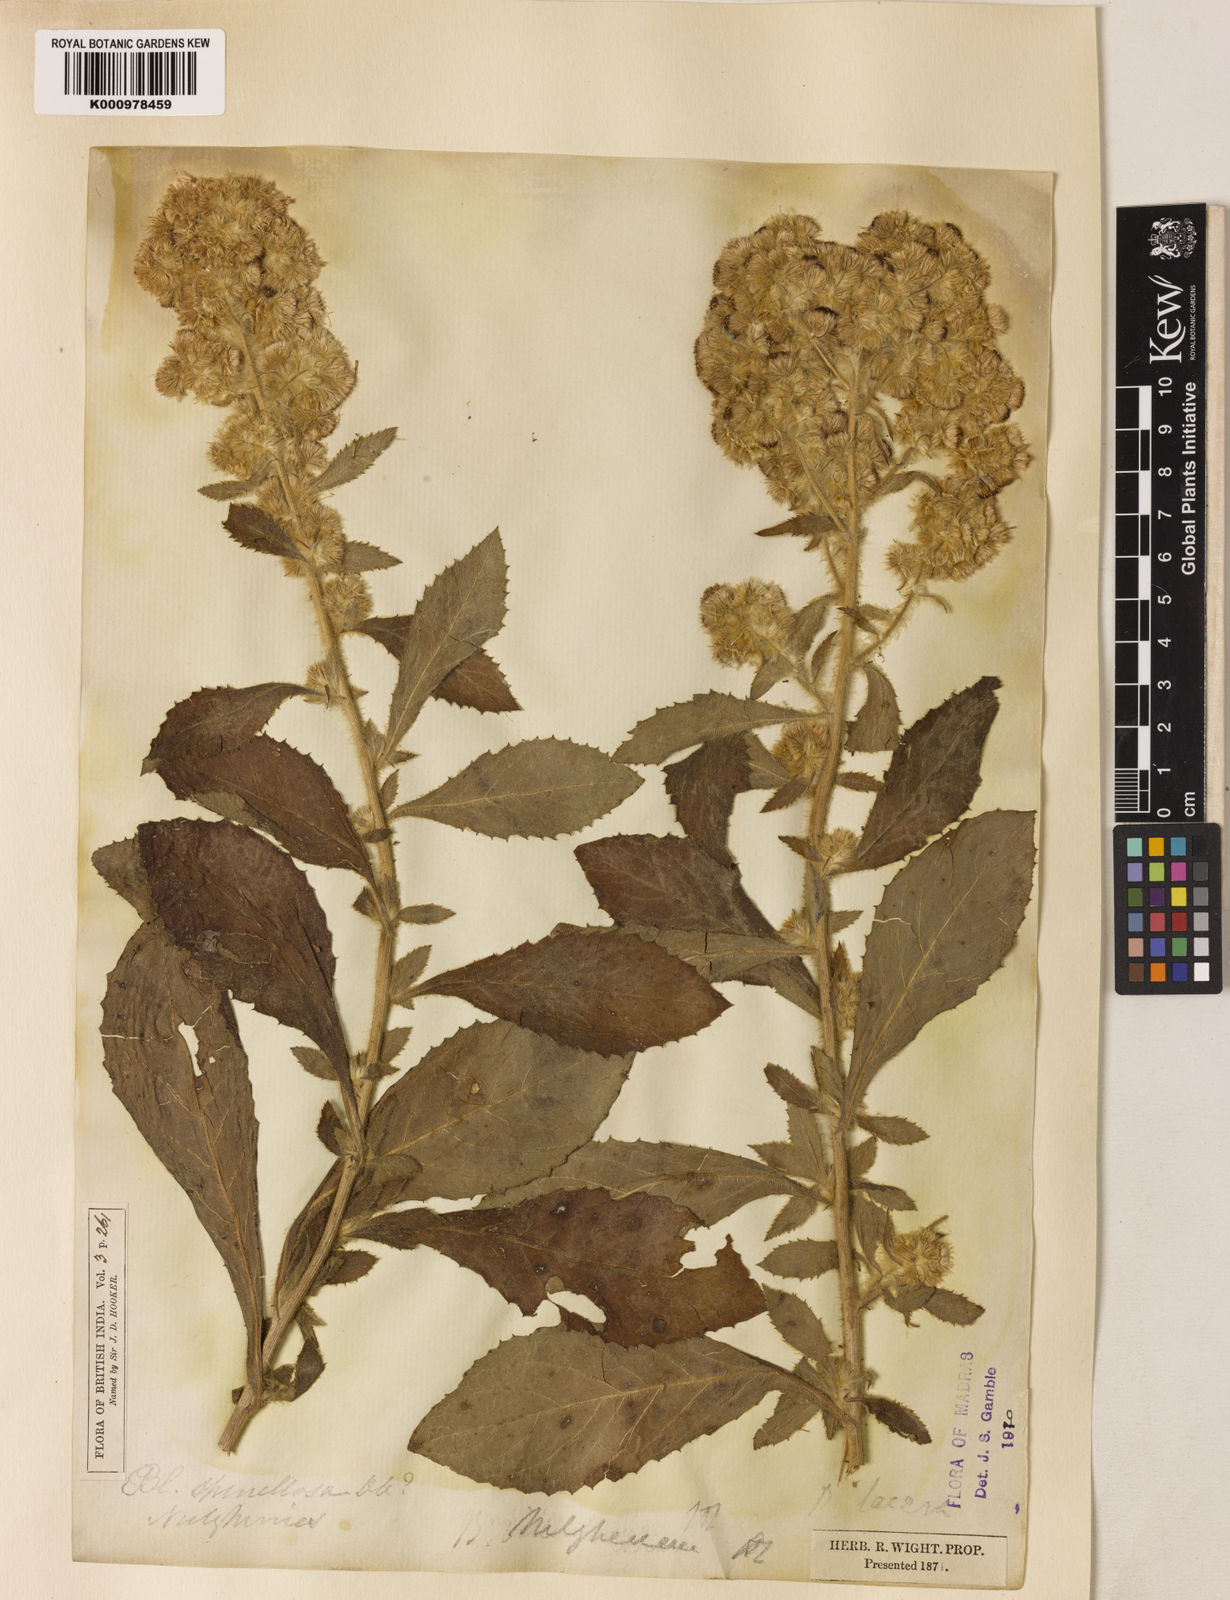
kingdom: Plantae
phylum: Tracheophyta
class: Magnoliopsida
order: Asterales
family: Asteraceae
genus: Blumea
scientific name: Blumea axillaris
